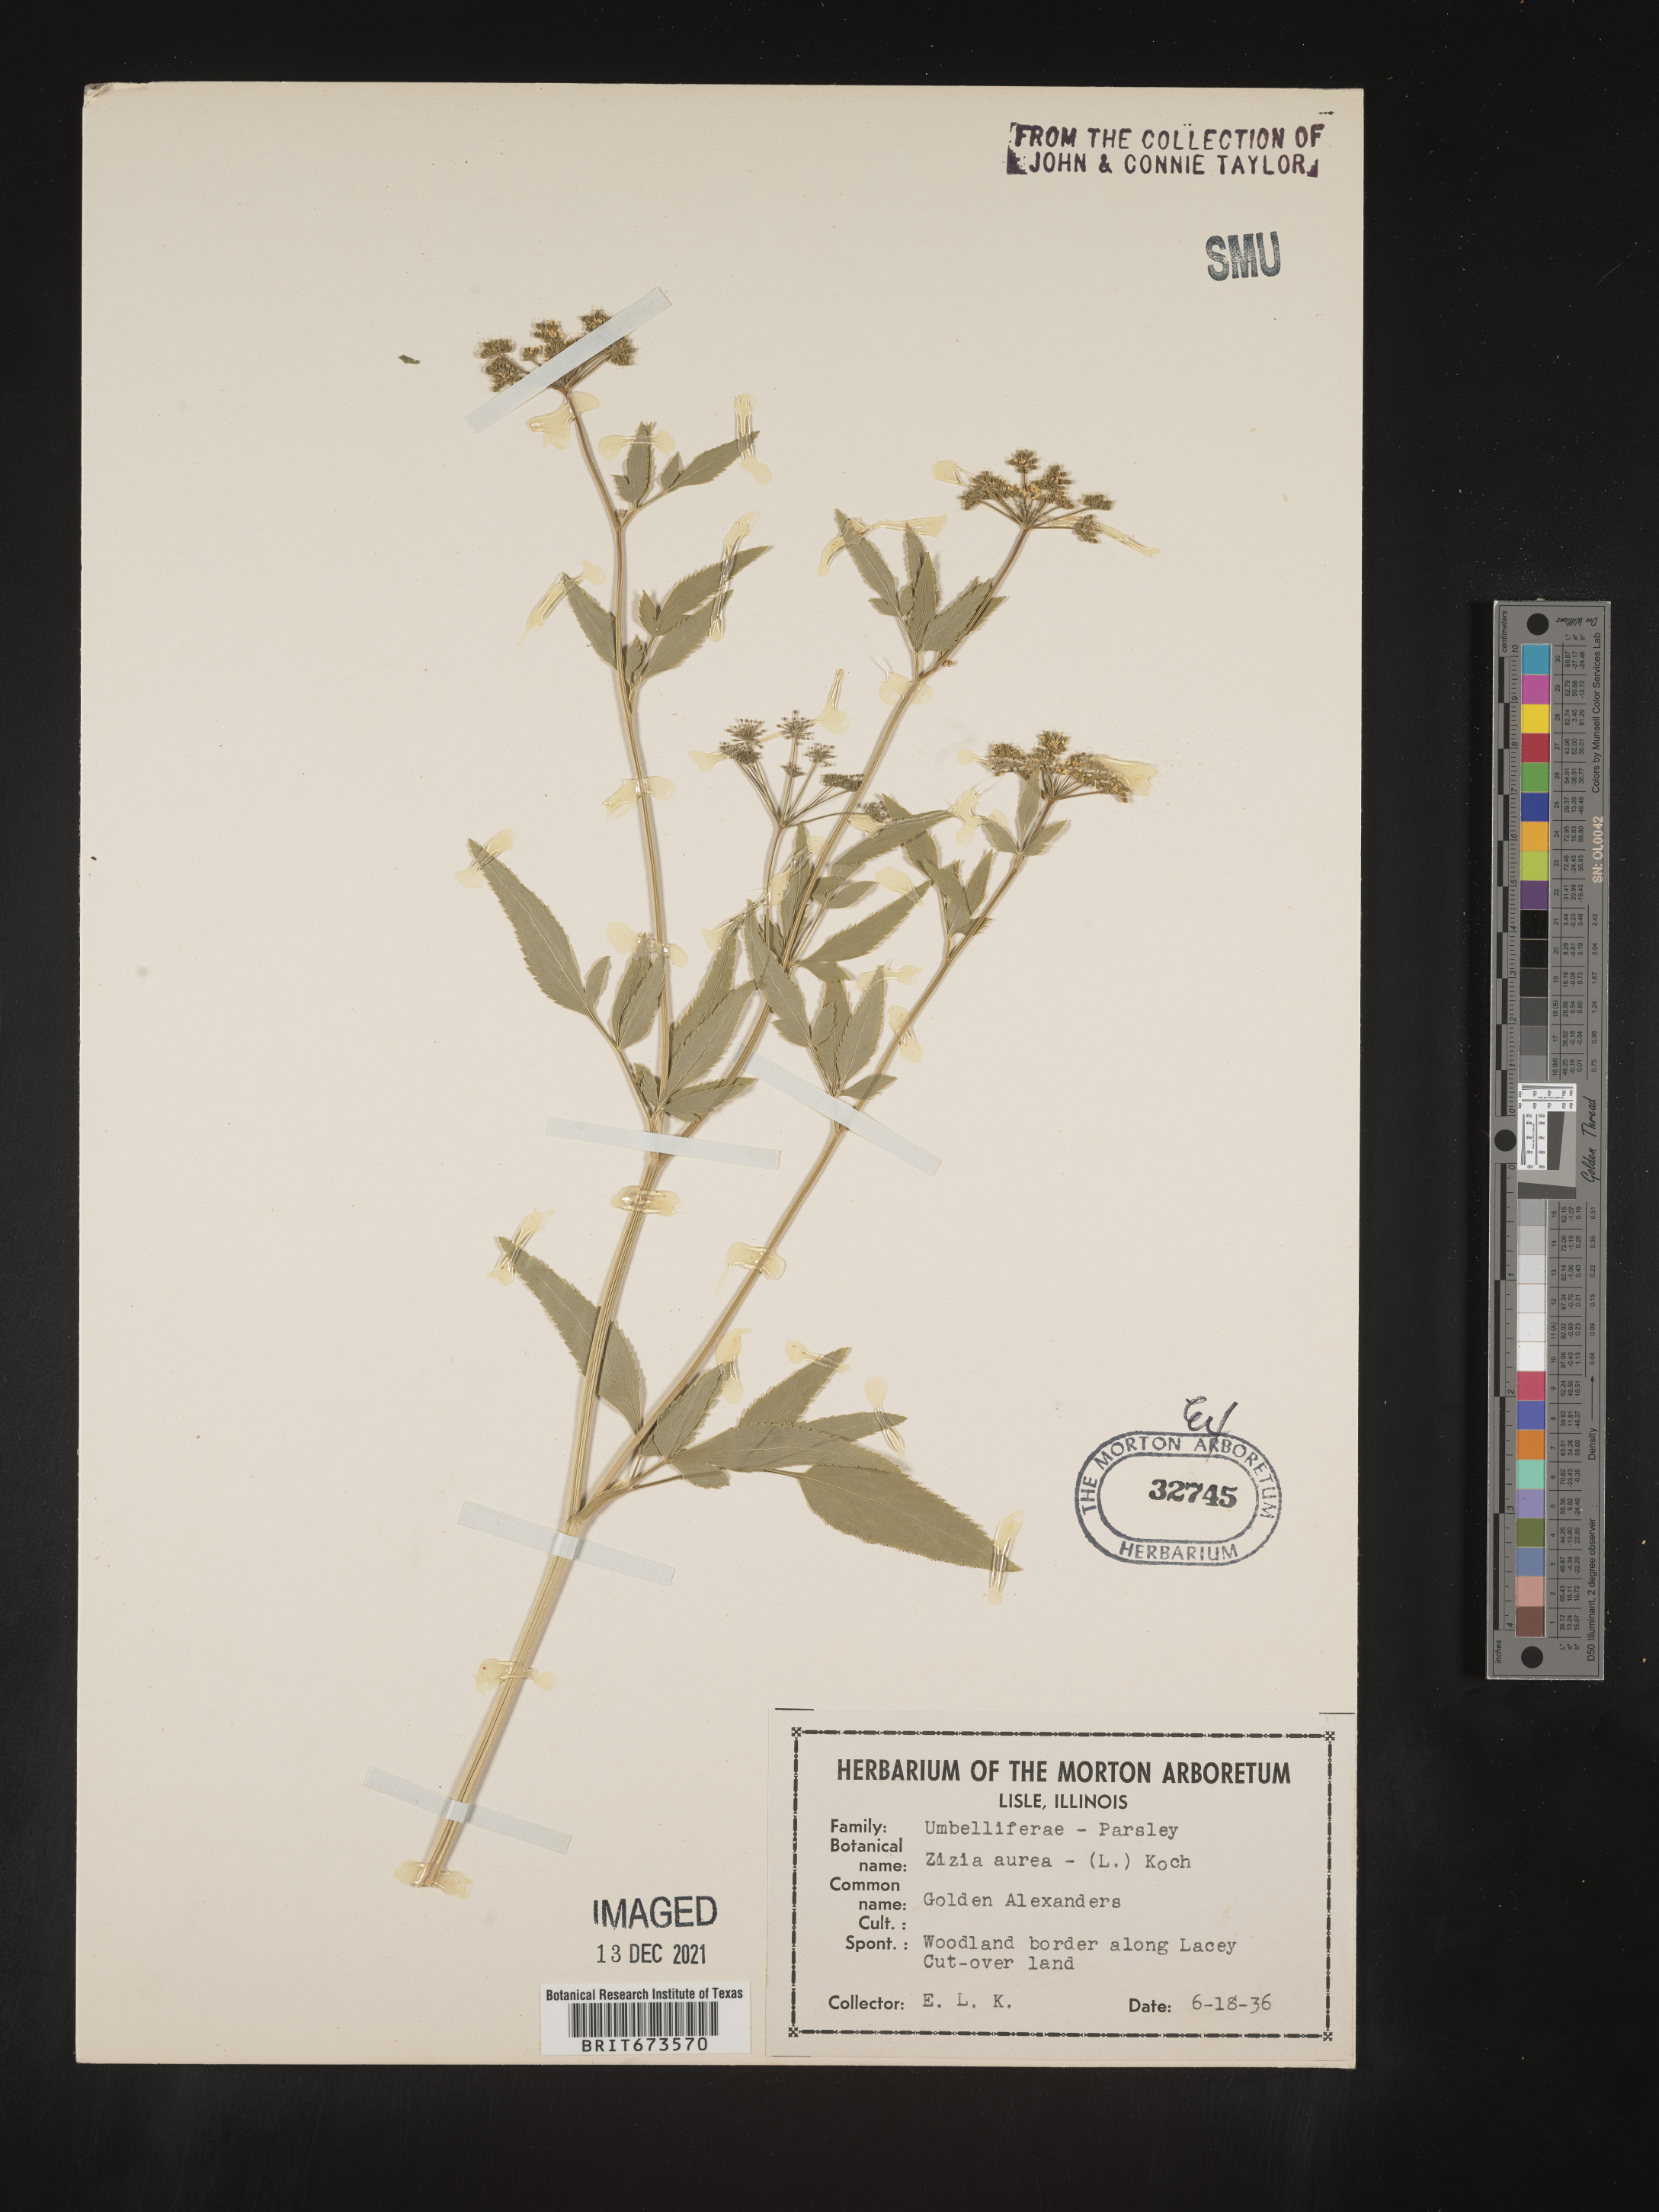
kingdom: Plantae
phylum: Tracheophyta
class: Magnoliopsida
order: Apiales
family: Apiaceae
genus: Zizia
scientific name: Zizia aurea
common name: Golden alexanders
